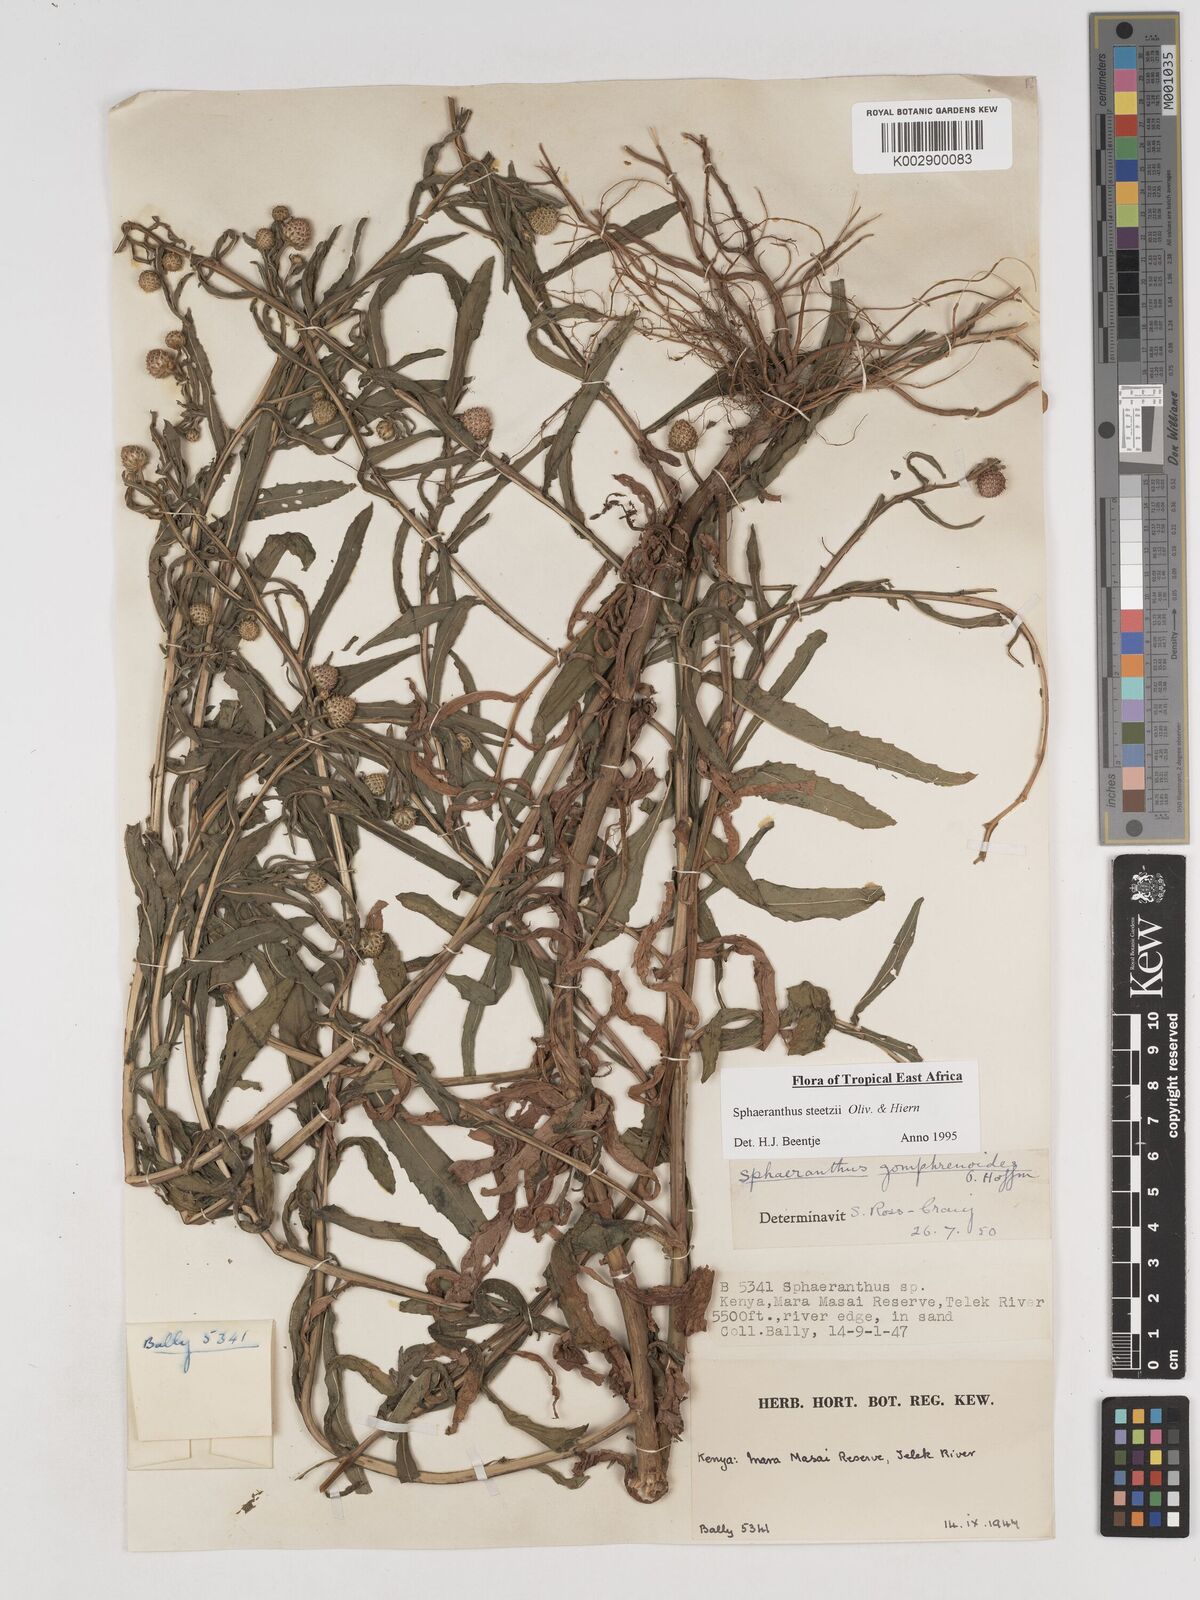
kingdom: Plantae
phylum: Tracheophyta
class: Magnoliopsida
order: Asterales
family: Asteraceae
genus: Sphaeranthus
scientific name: Sphaeranthus steetzii
